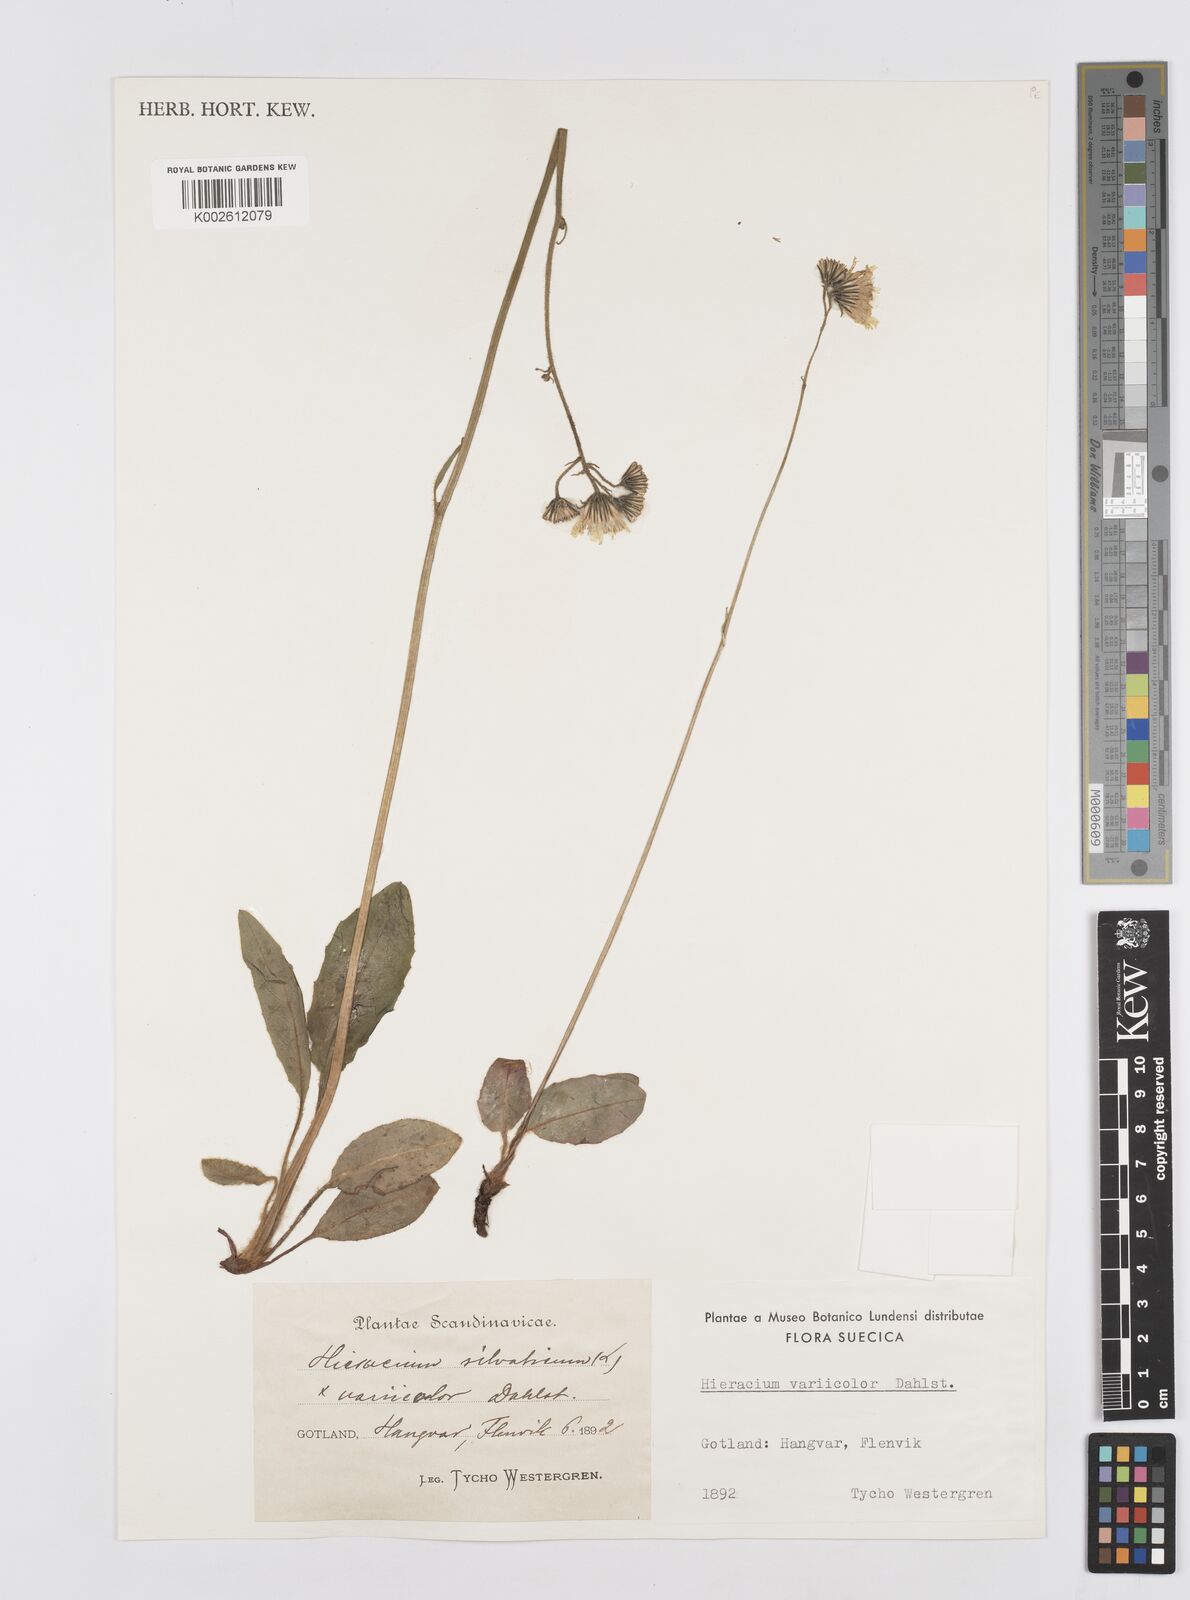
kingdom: Plantae
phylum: Tracheophyta
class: Magnoliopsida
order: Asterales
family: Asteraceae
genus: Hieracium
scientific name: Hieracium variicolor
